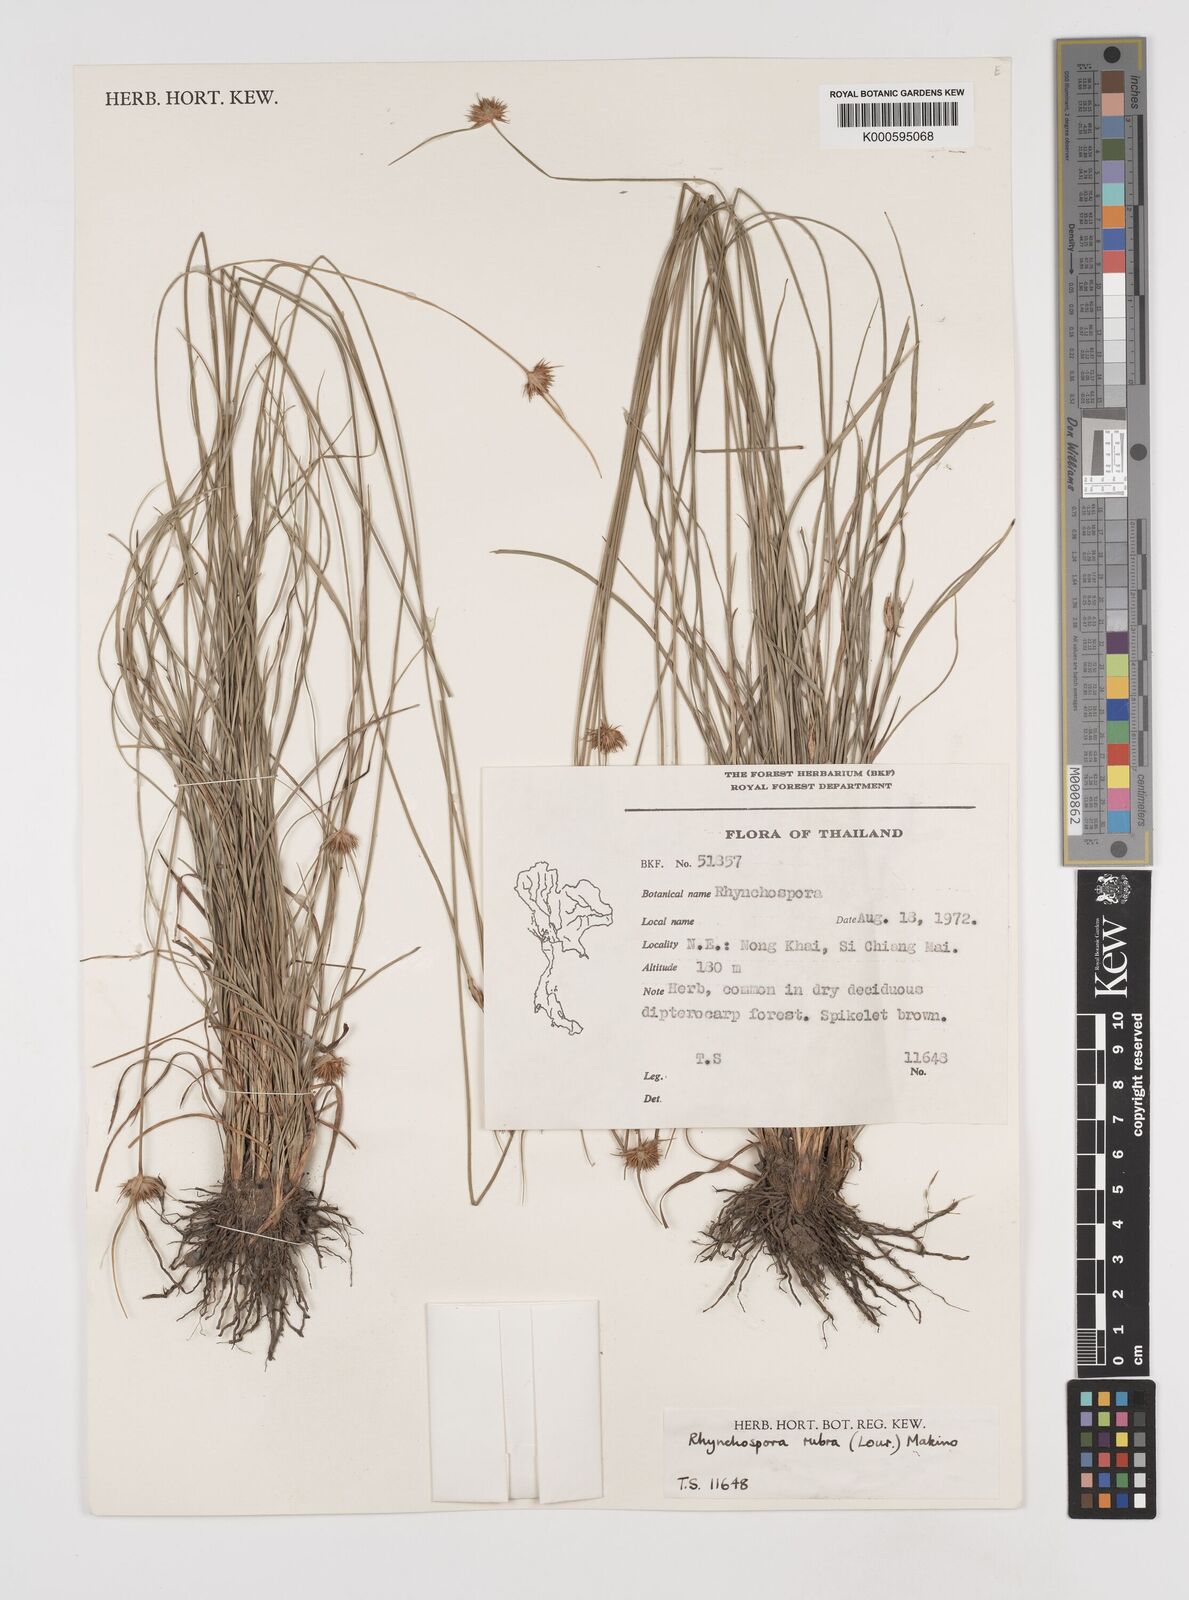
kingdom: Plantae
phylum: Tracheophyta
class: Liliopsida
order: Poales
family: Cyperaceae
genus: Rhynchospora
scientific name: Rhynchospora rubra
